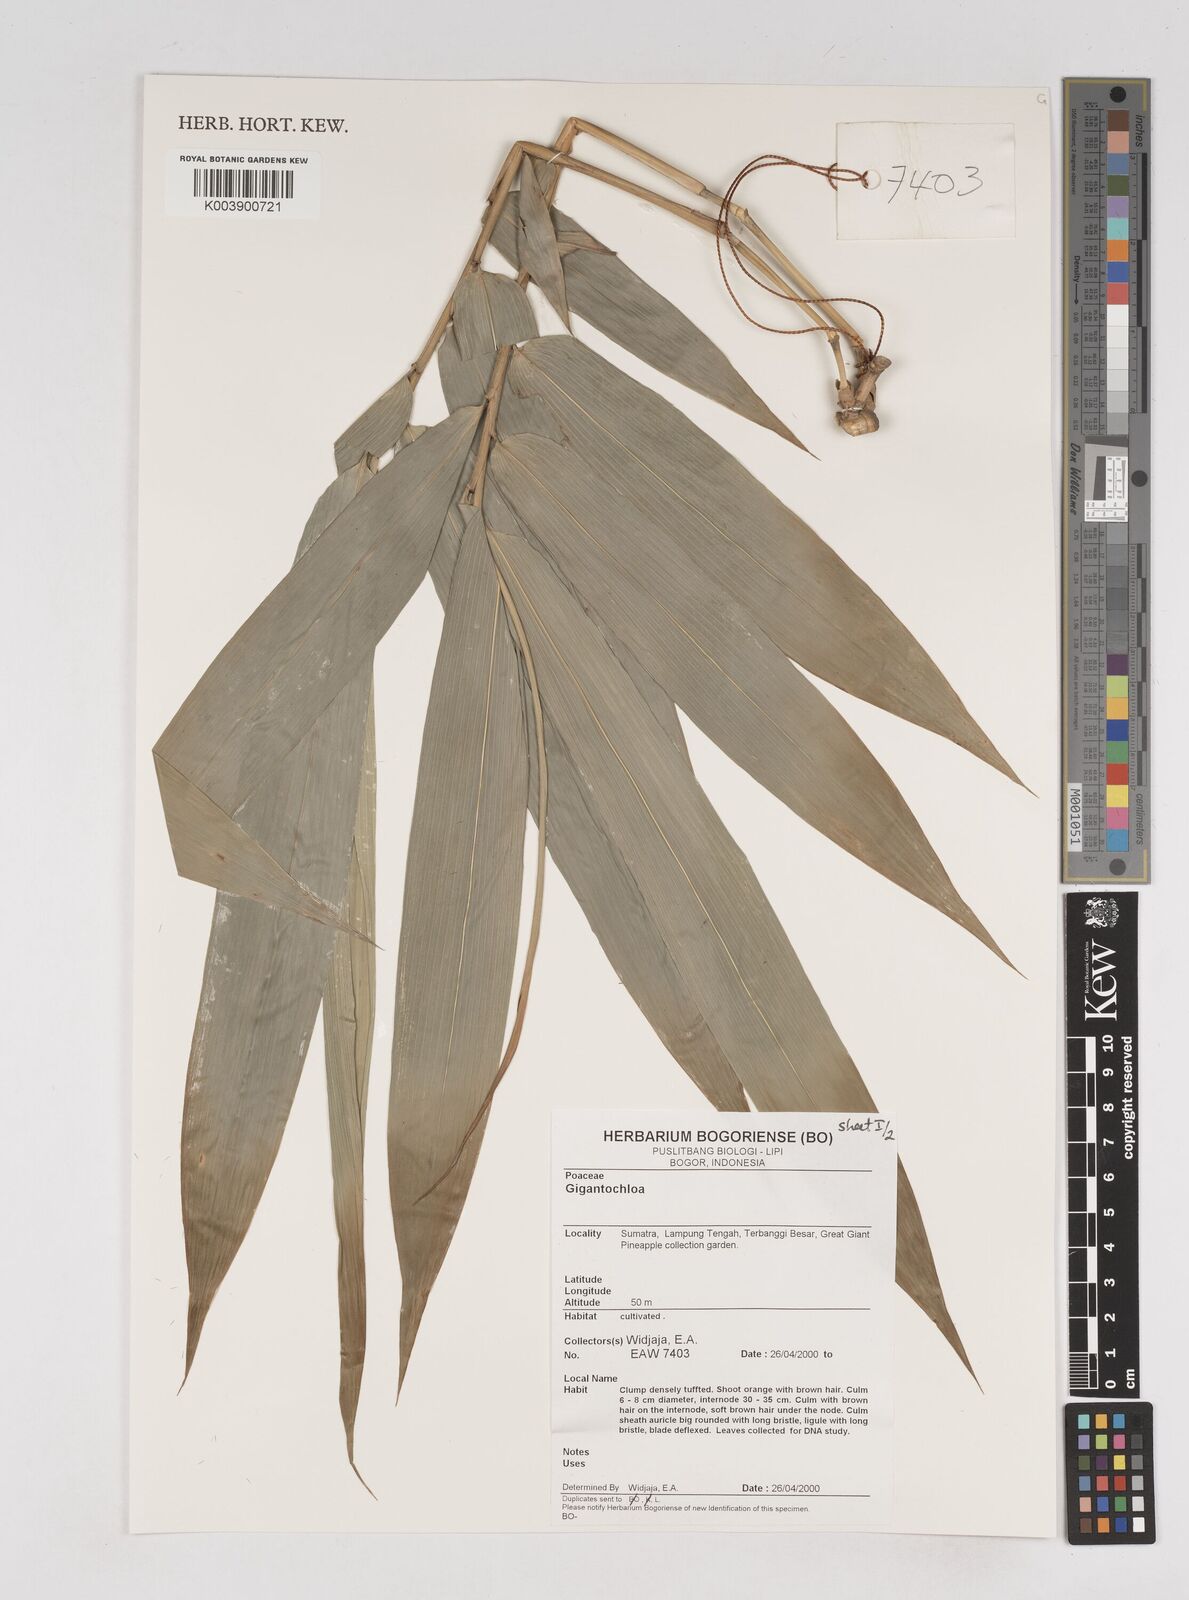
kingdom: Plantae
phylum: Tracheophyta
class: Liliopsida
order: Poales
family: Poaceae
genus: Gigantochloa
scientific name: Gigantochloa
